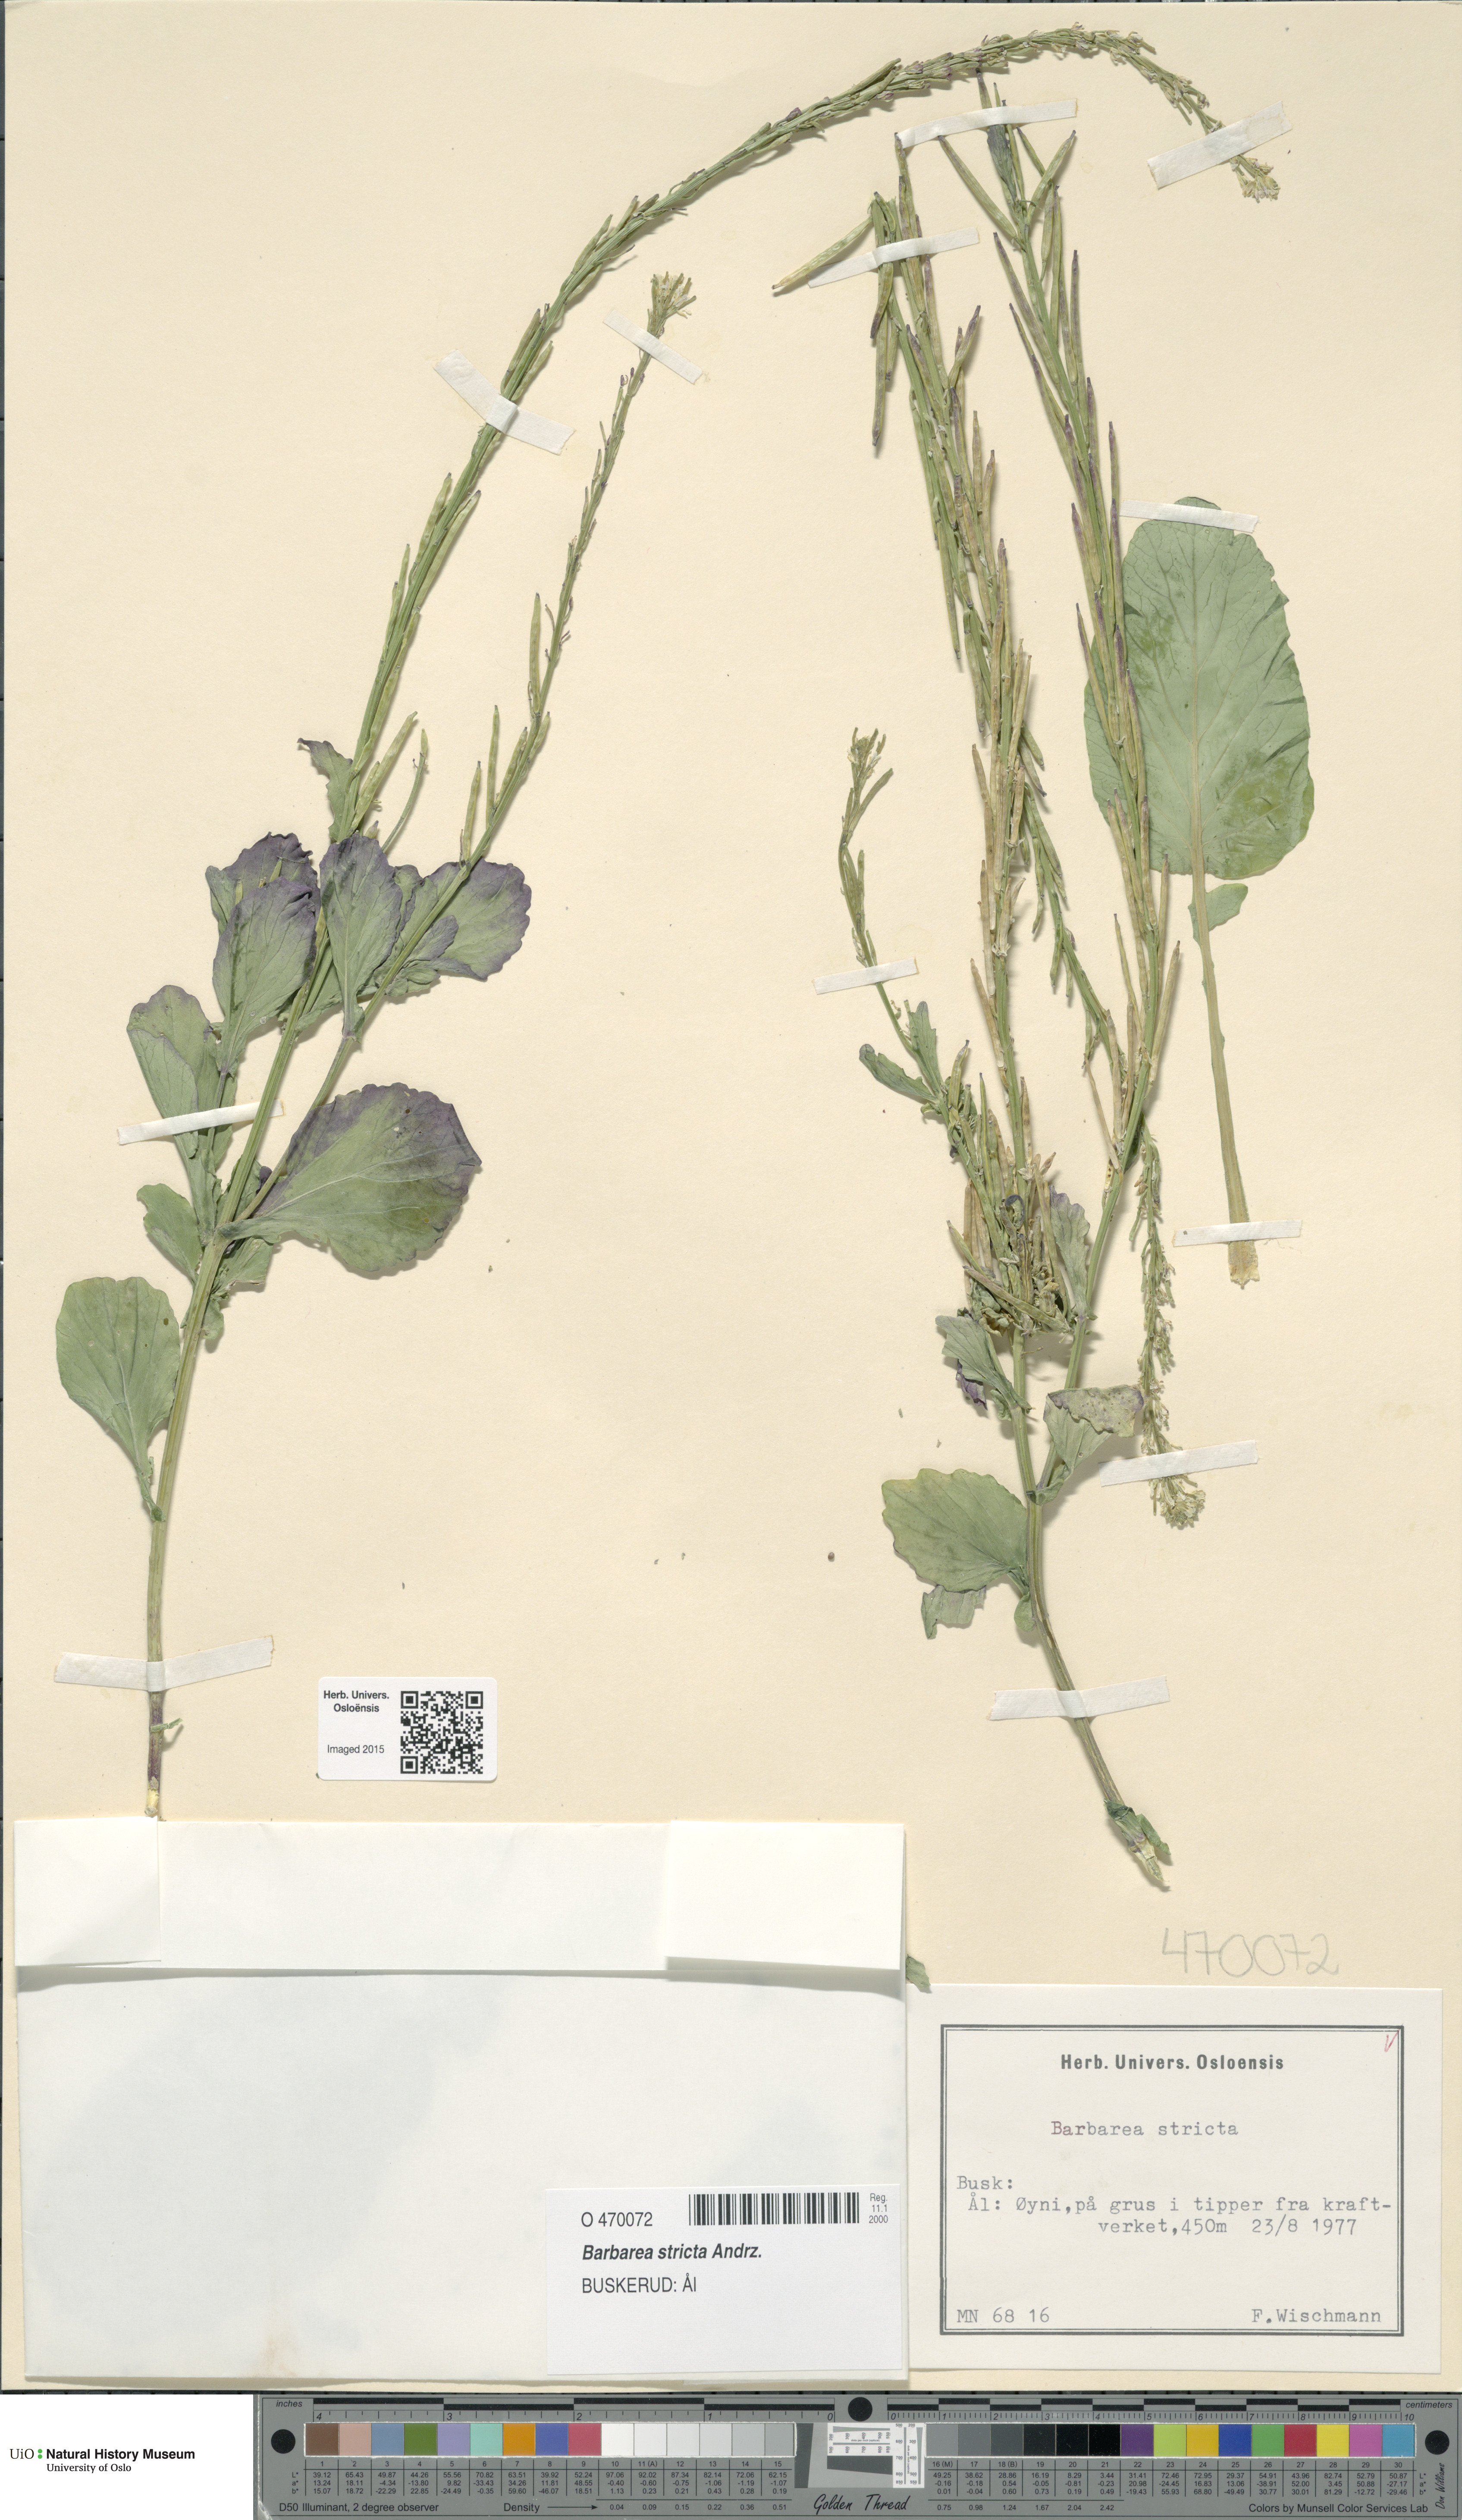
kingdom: Plantae
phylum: Tracheophyta
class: Magnoliopsida
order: Brassicales
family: Brassicaceae
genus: Barbarea
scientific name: Barbarea stricta
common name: Small-flowered winter-cress
